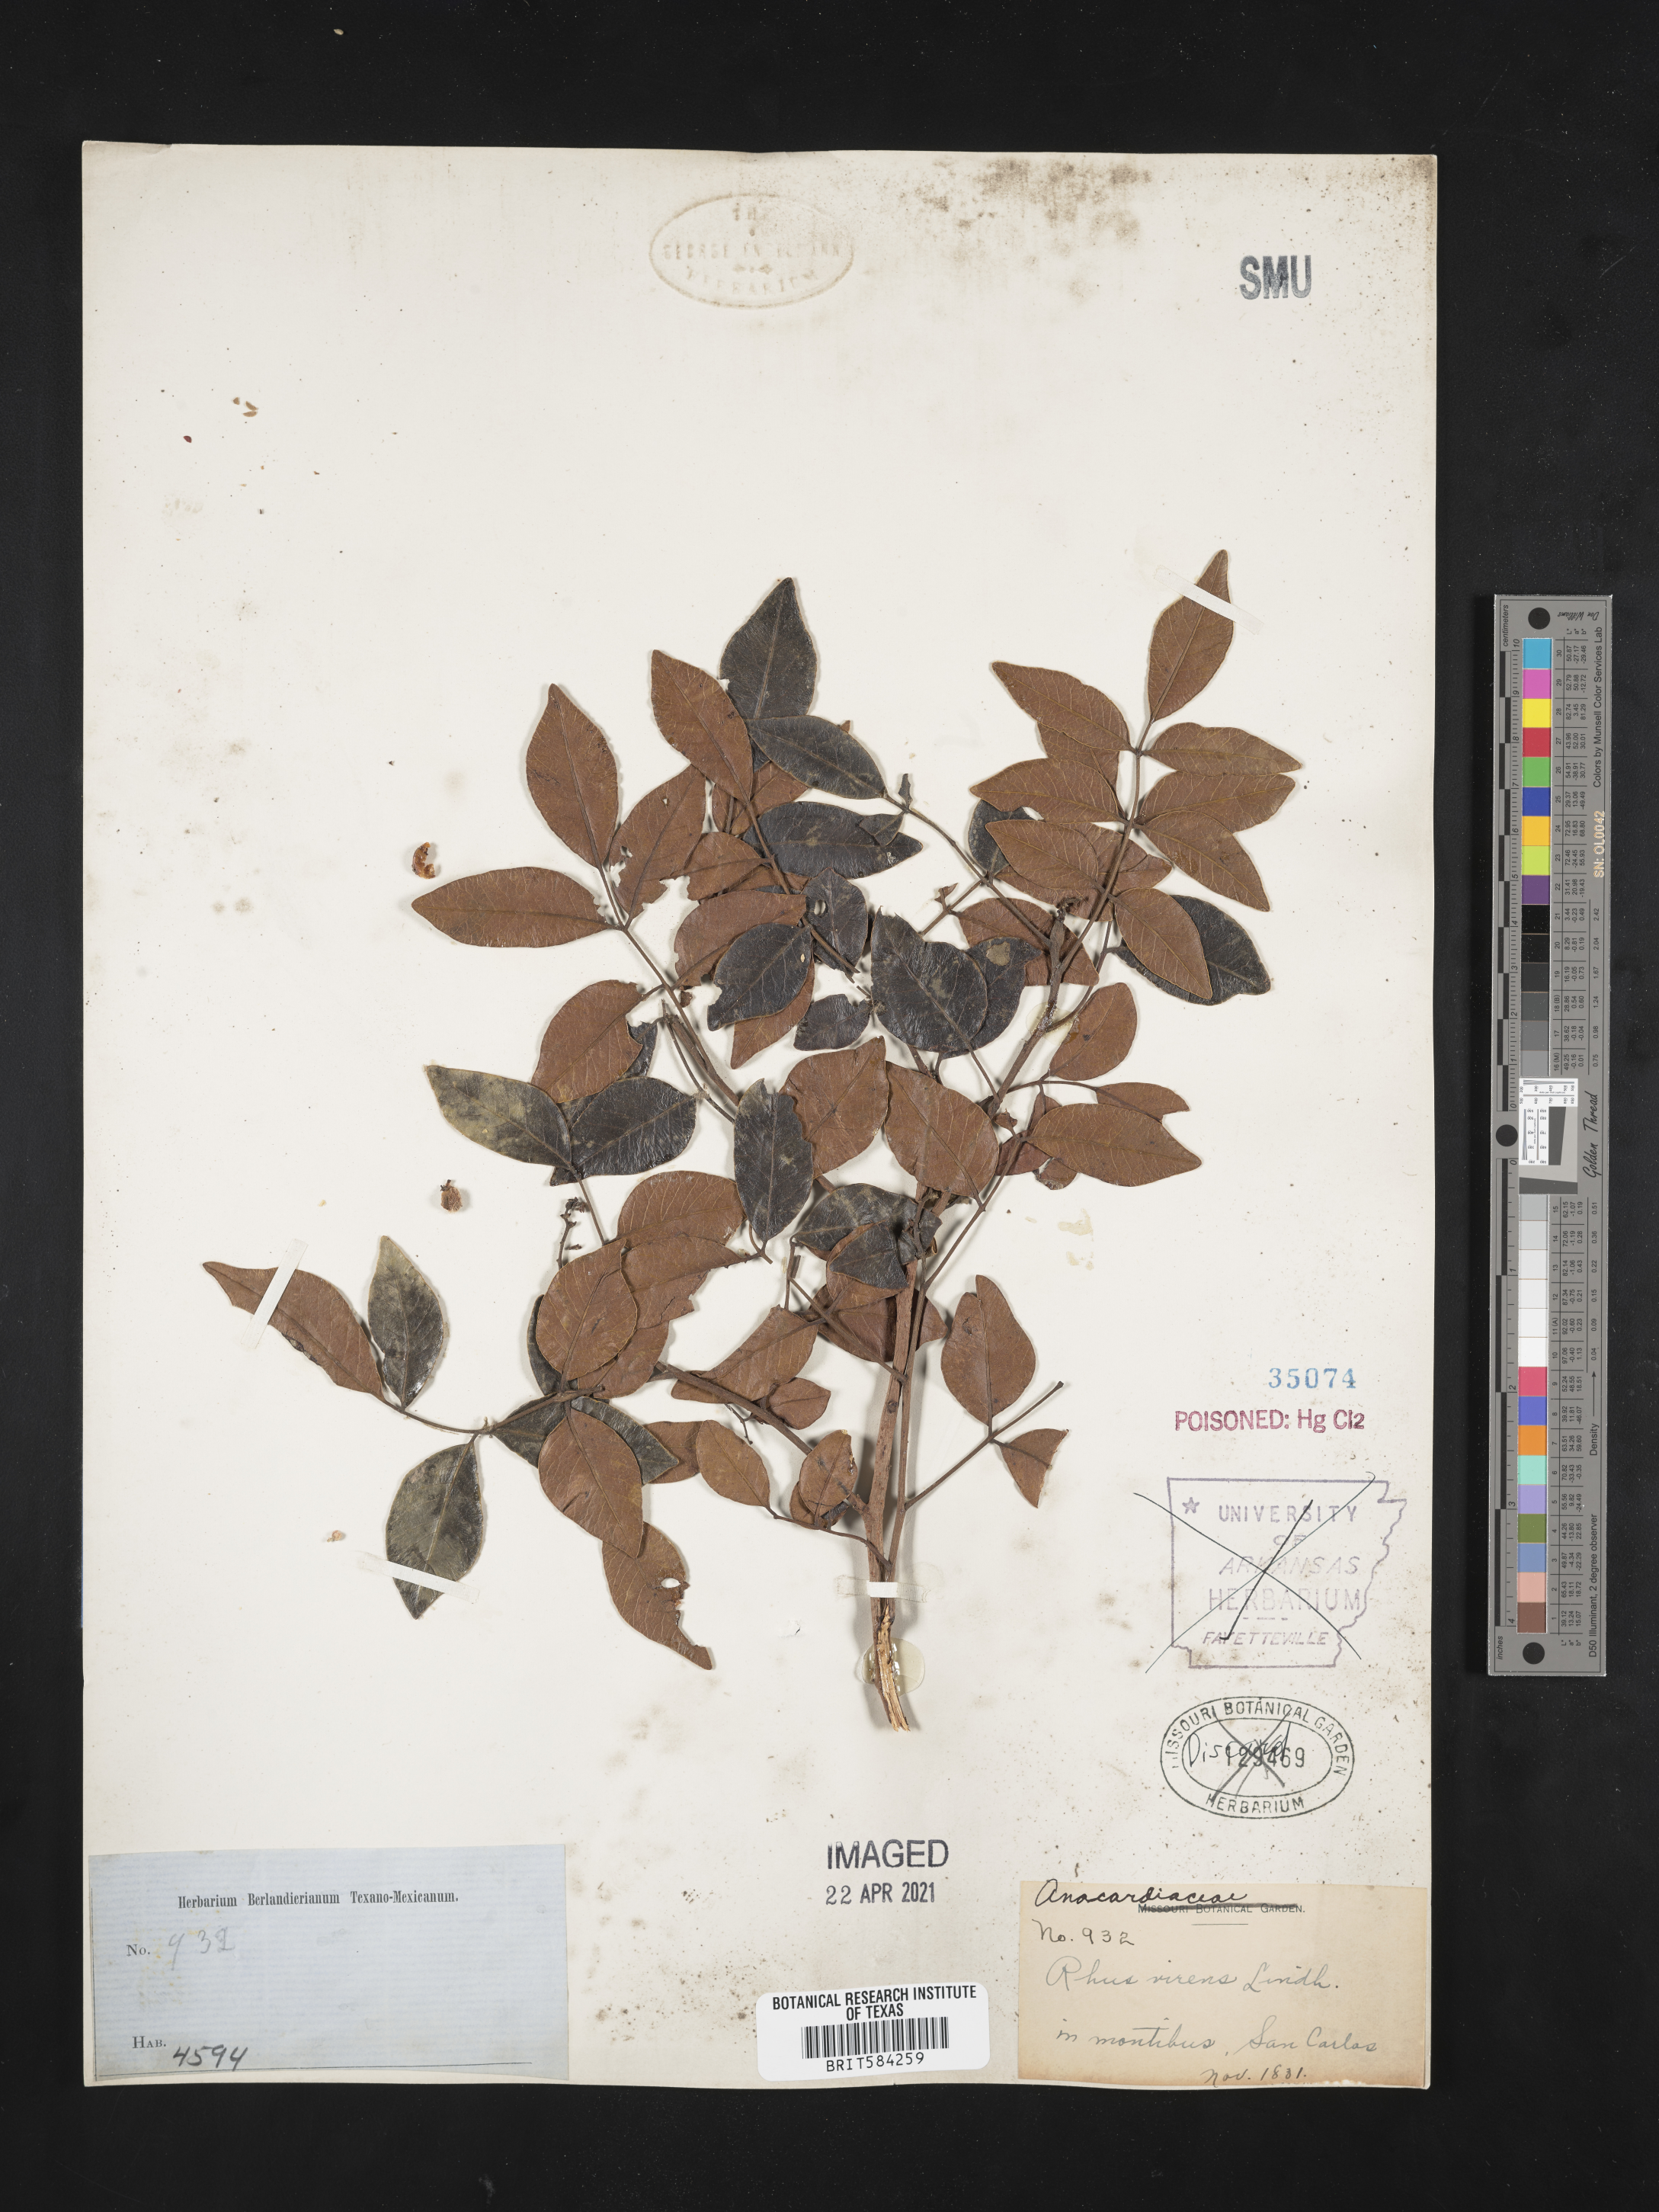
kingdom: Plantae
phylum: Tracheophyta
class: Magnoliopsida
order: Sapindales
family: Anacardiaceae
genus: Rhus
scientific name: Rhus virens
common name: Evergreen sumac
